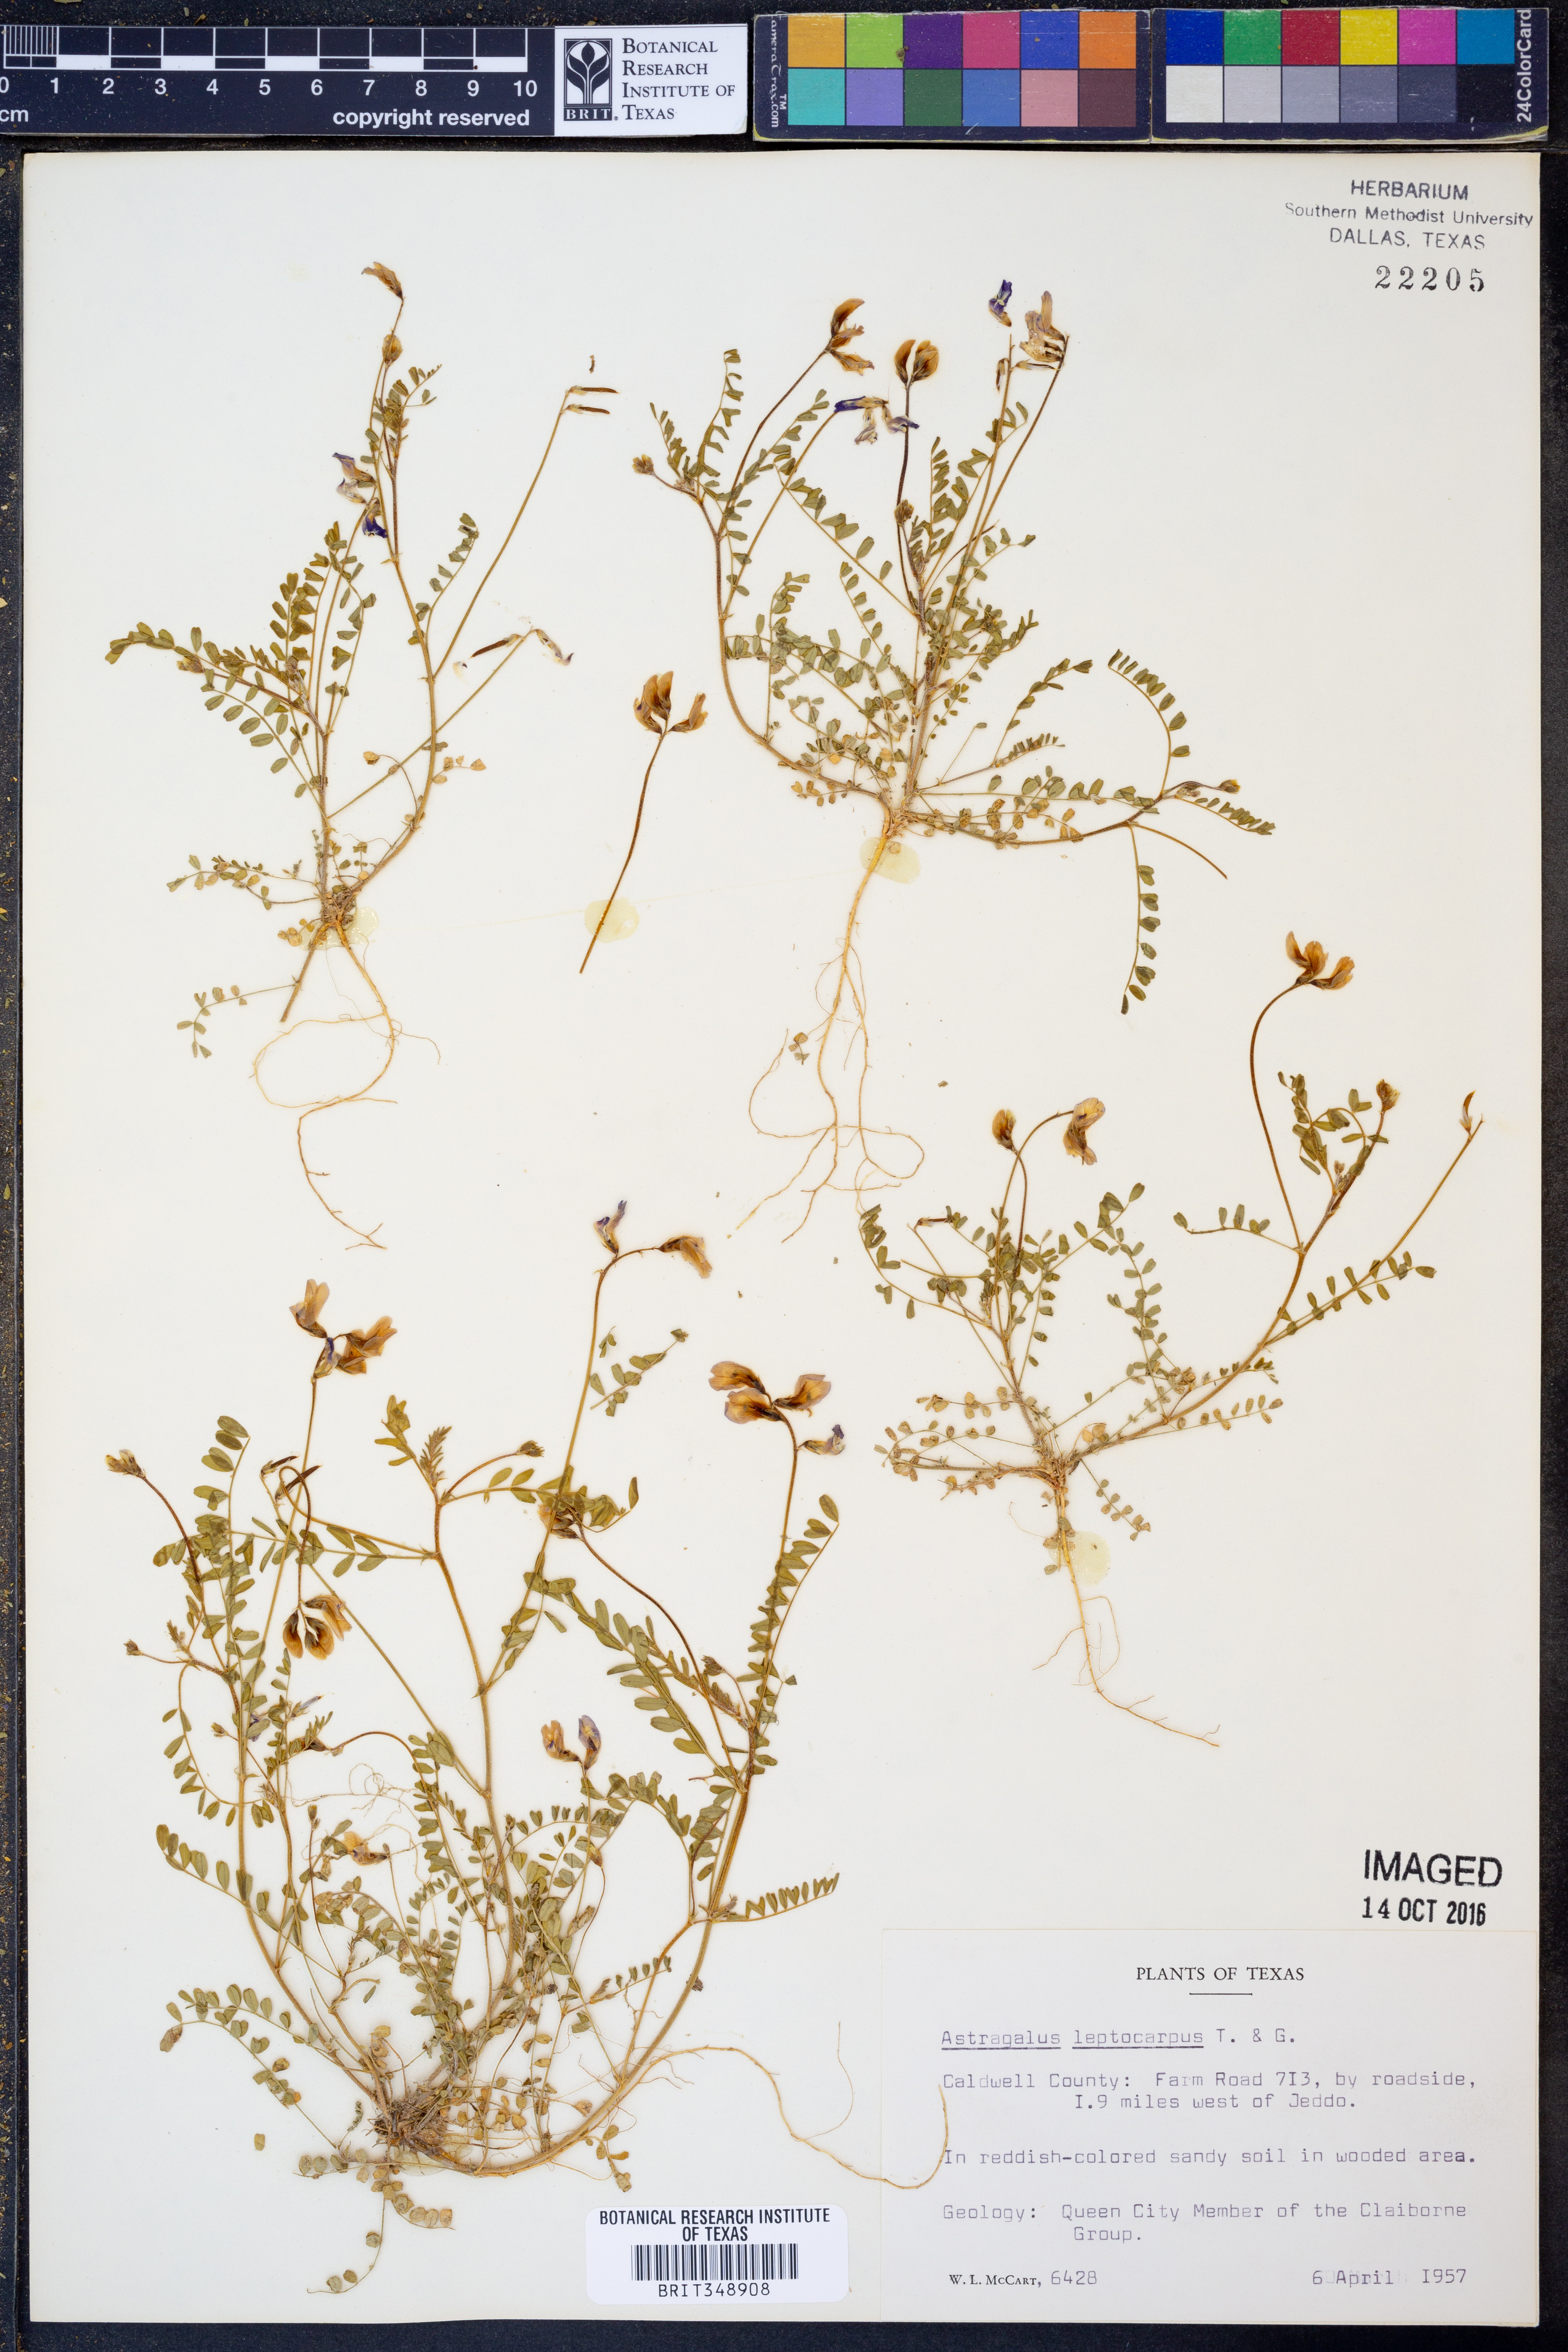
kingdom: Plantae
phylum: Tracheophyta
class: Magnoliopsida
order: Fabales
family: Fabaceae
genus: Astragalus
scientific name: Astragalus leptocarpus
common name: Bodkin milk-vetch
